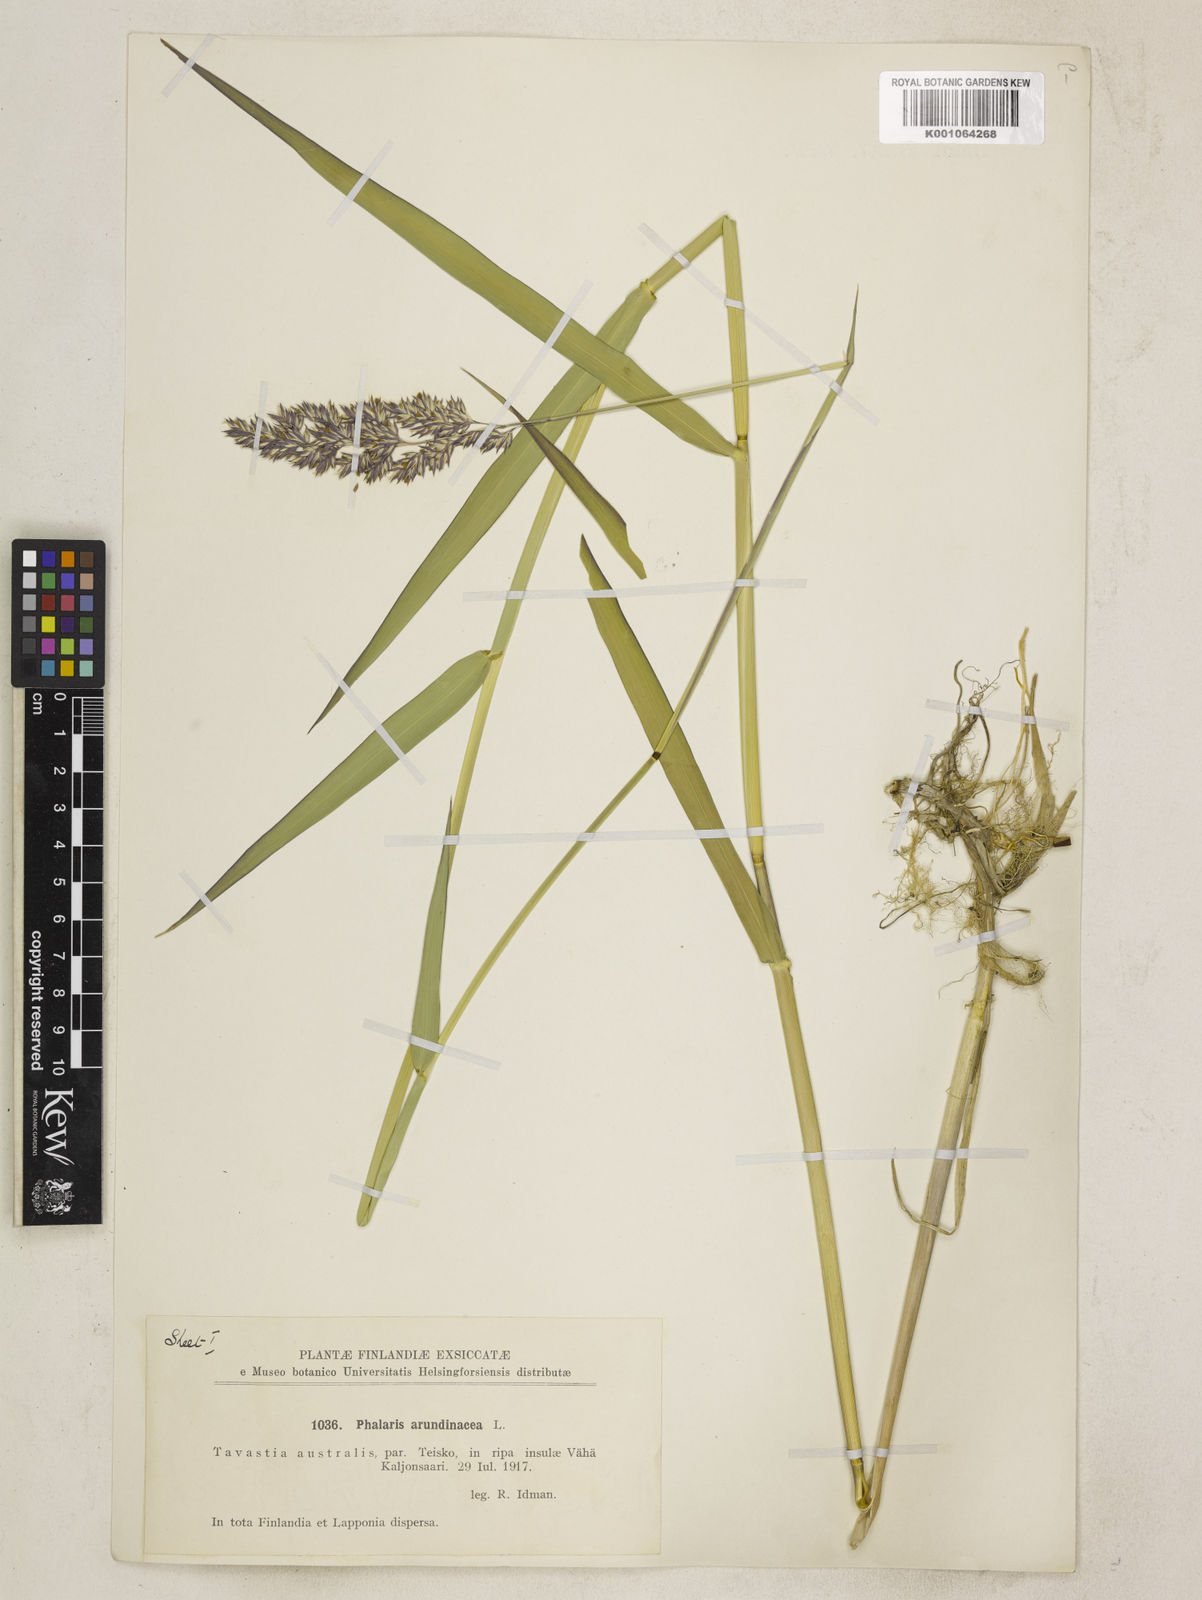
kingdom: Plantae
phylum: Tracheophyta
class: Liliopsida
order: Poales
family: Poaceae
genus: Phalaris
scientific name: Phalaris arundinacea
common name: Reed canary-grass
